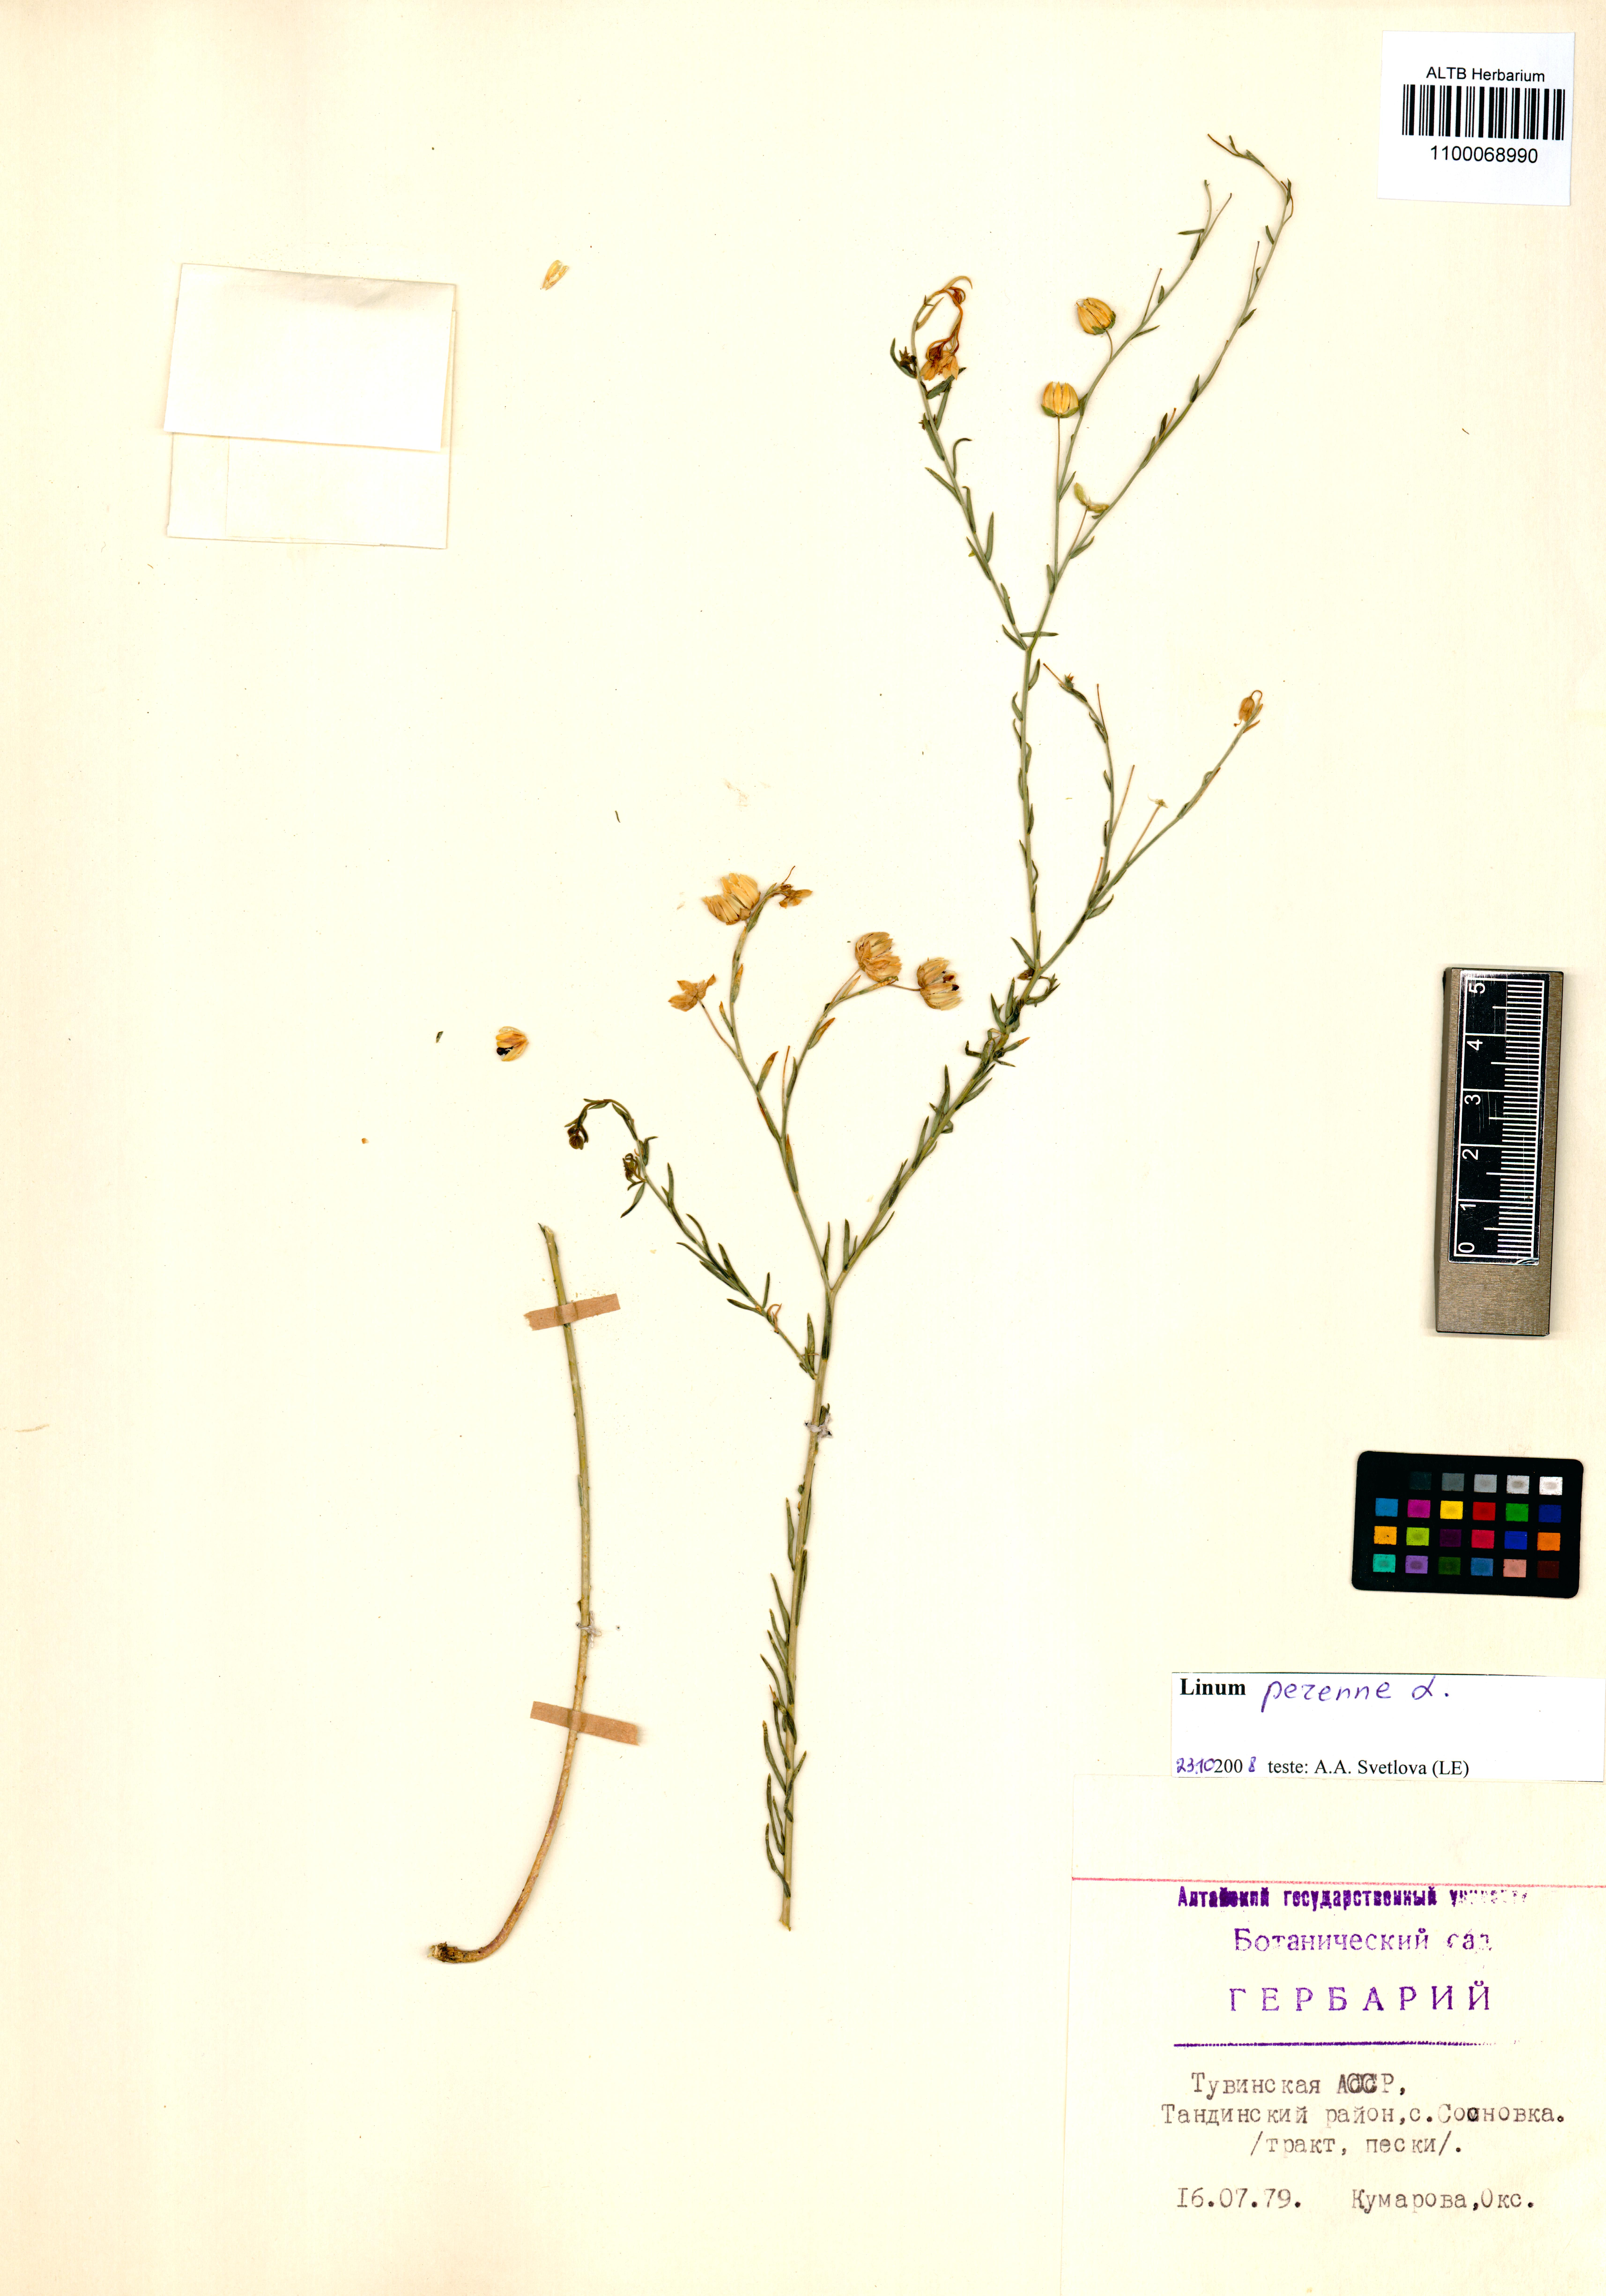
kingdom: Plantae
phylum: Tracheophyta
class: Magnoliopsida
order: Malpighiales
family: Linaceae
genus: Linum
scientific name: Linum perenne
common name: Blue flax
